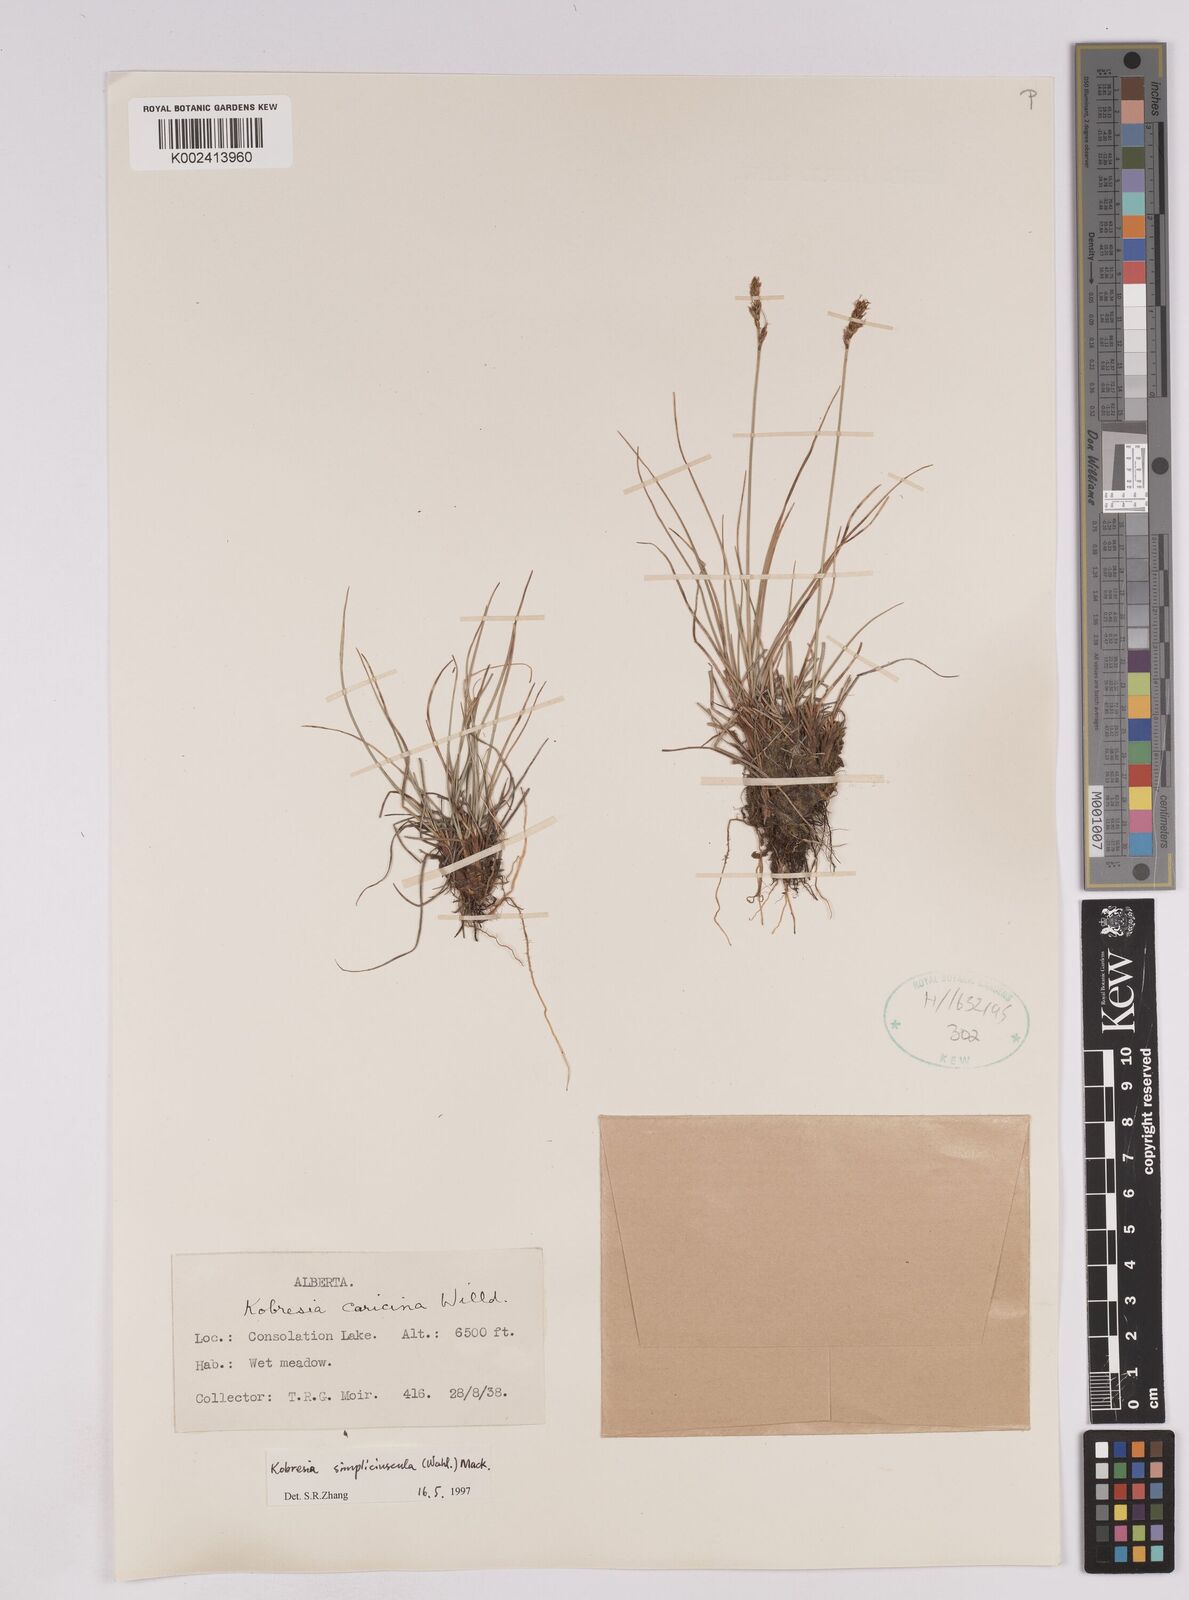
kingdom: Plantae
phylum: Tracheophyta
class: Liliopsida
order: Poales
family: Cyperaceae
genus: Carex
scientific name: Carex simpliciuscula
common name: Simple bog sedge
